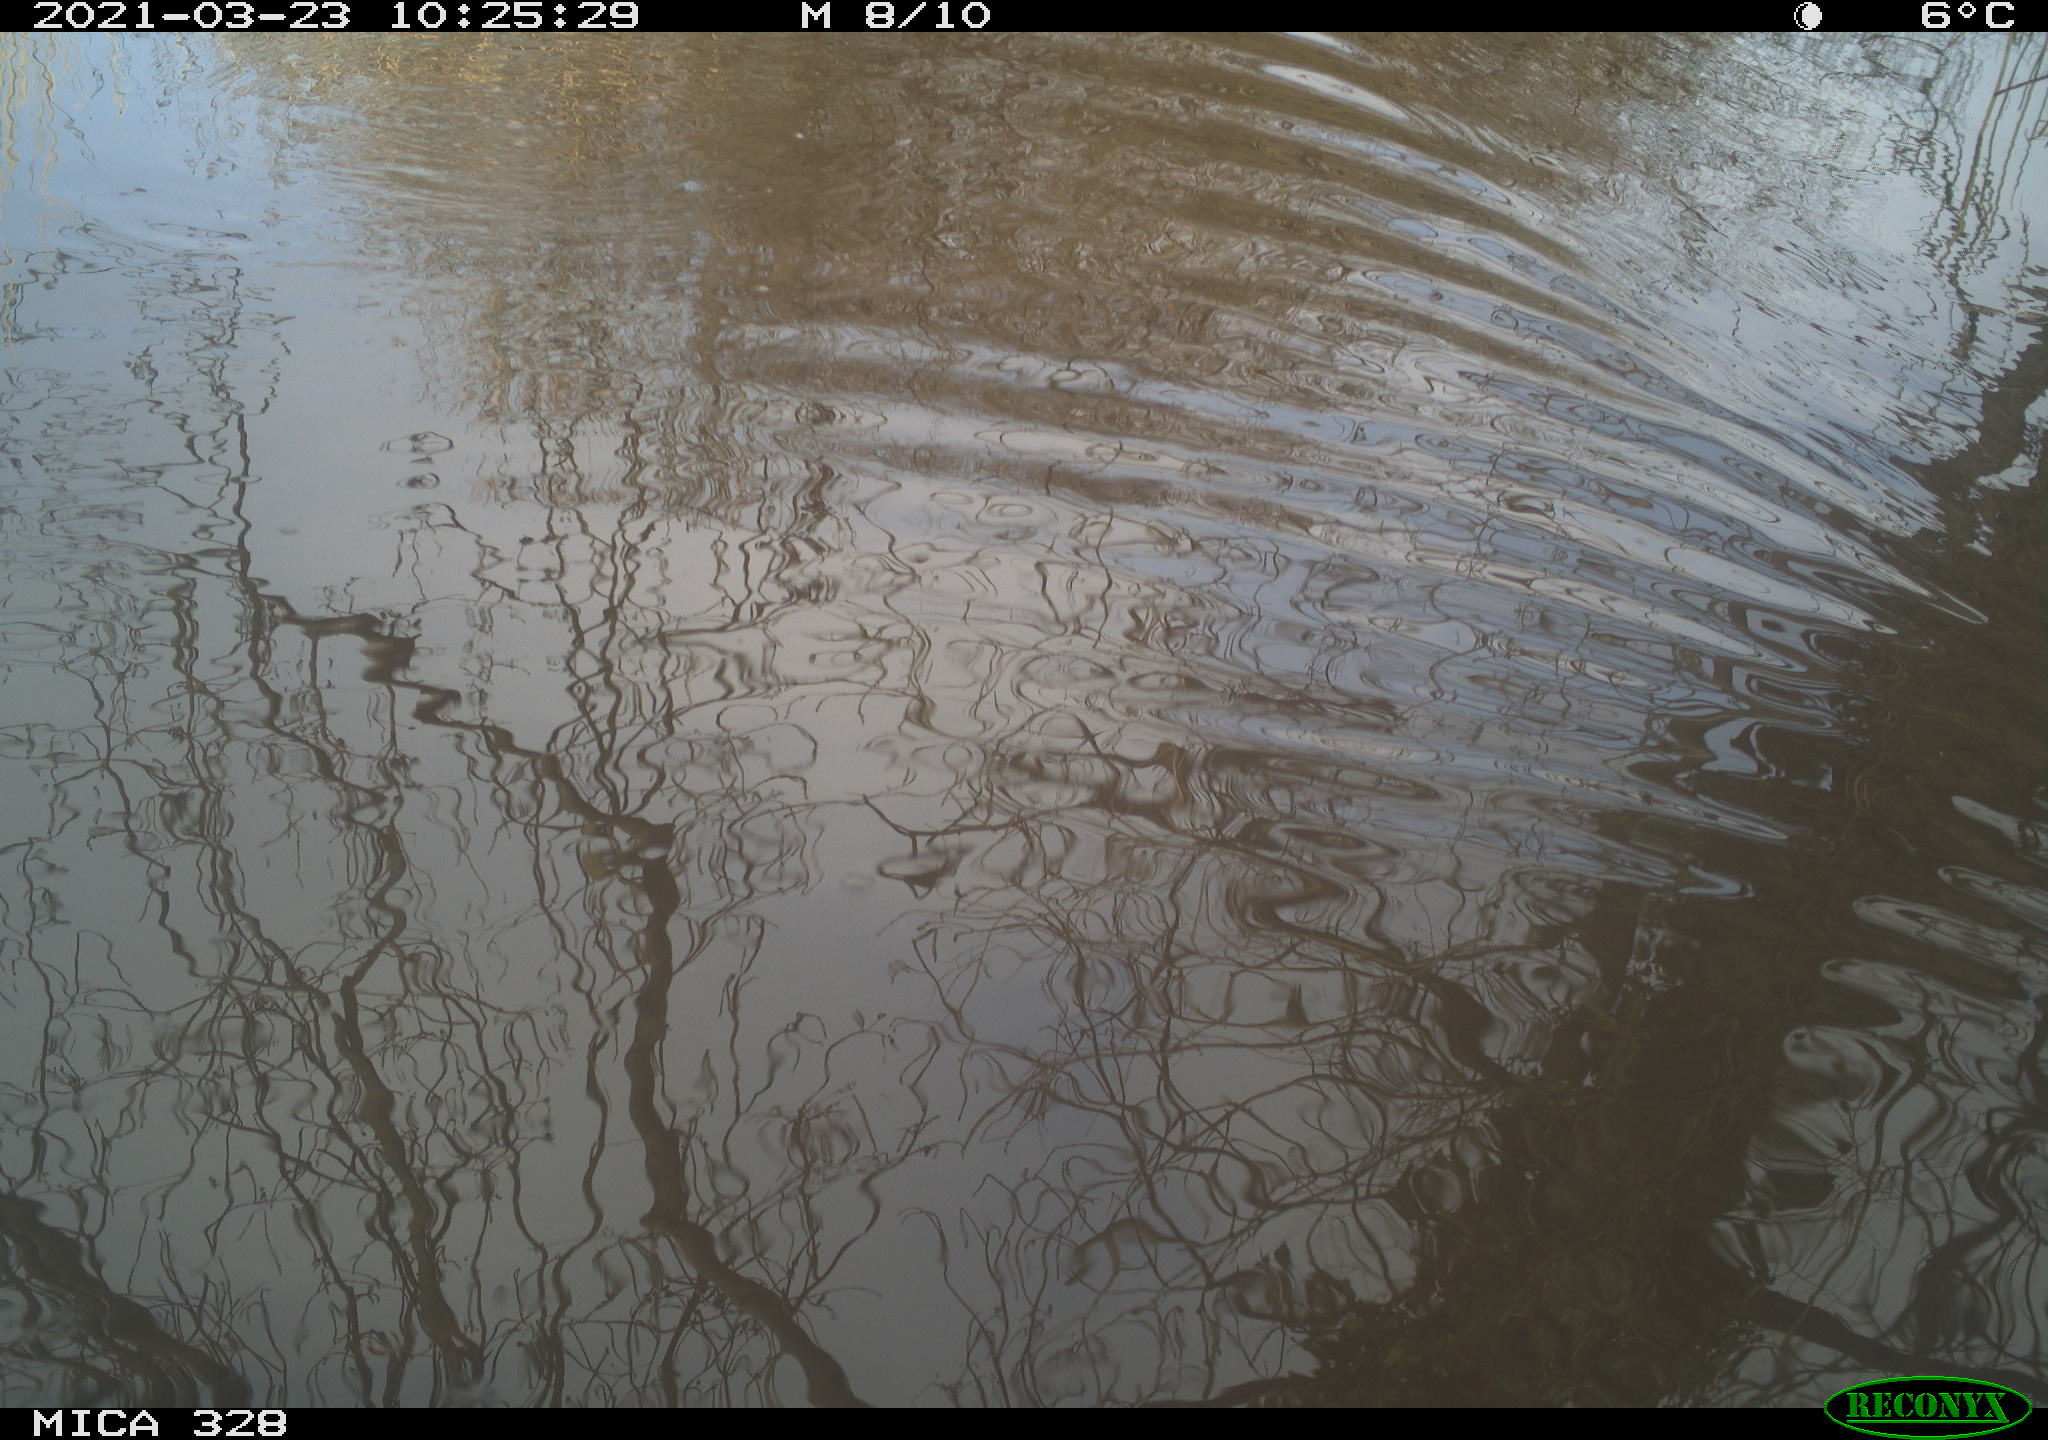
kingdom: Animalia
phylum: Chordata
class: Aves
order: Anseriformes
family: Anatidae
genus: Anas
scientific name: Anas platyrhynchos
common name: Mallard
